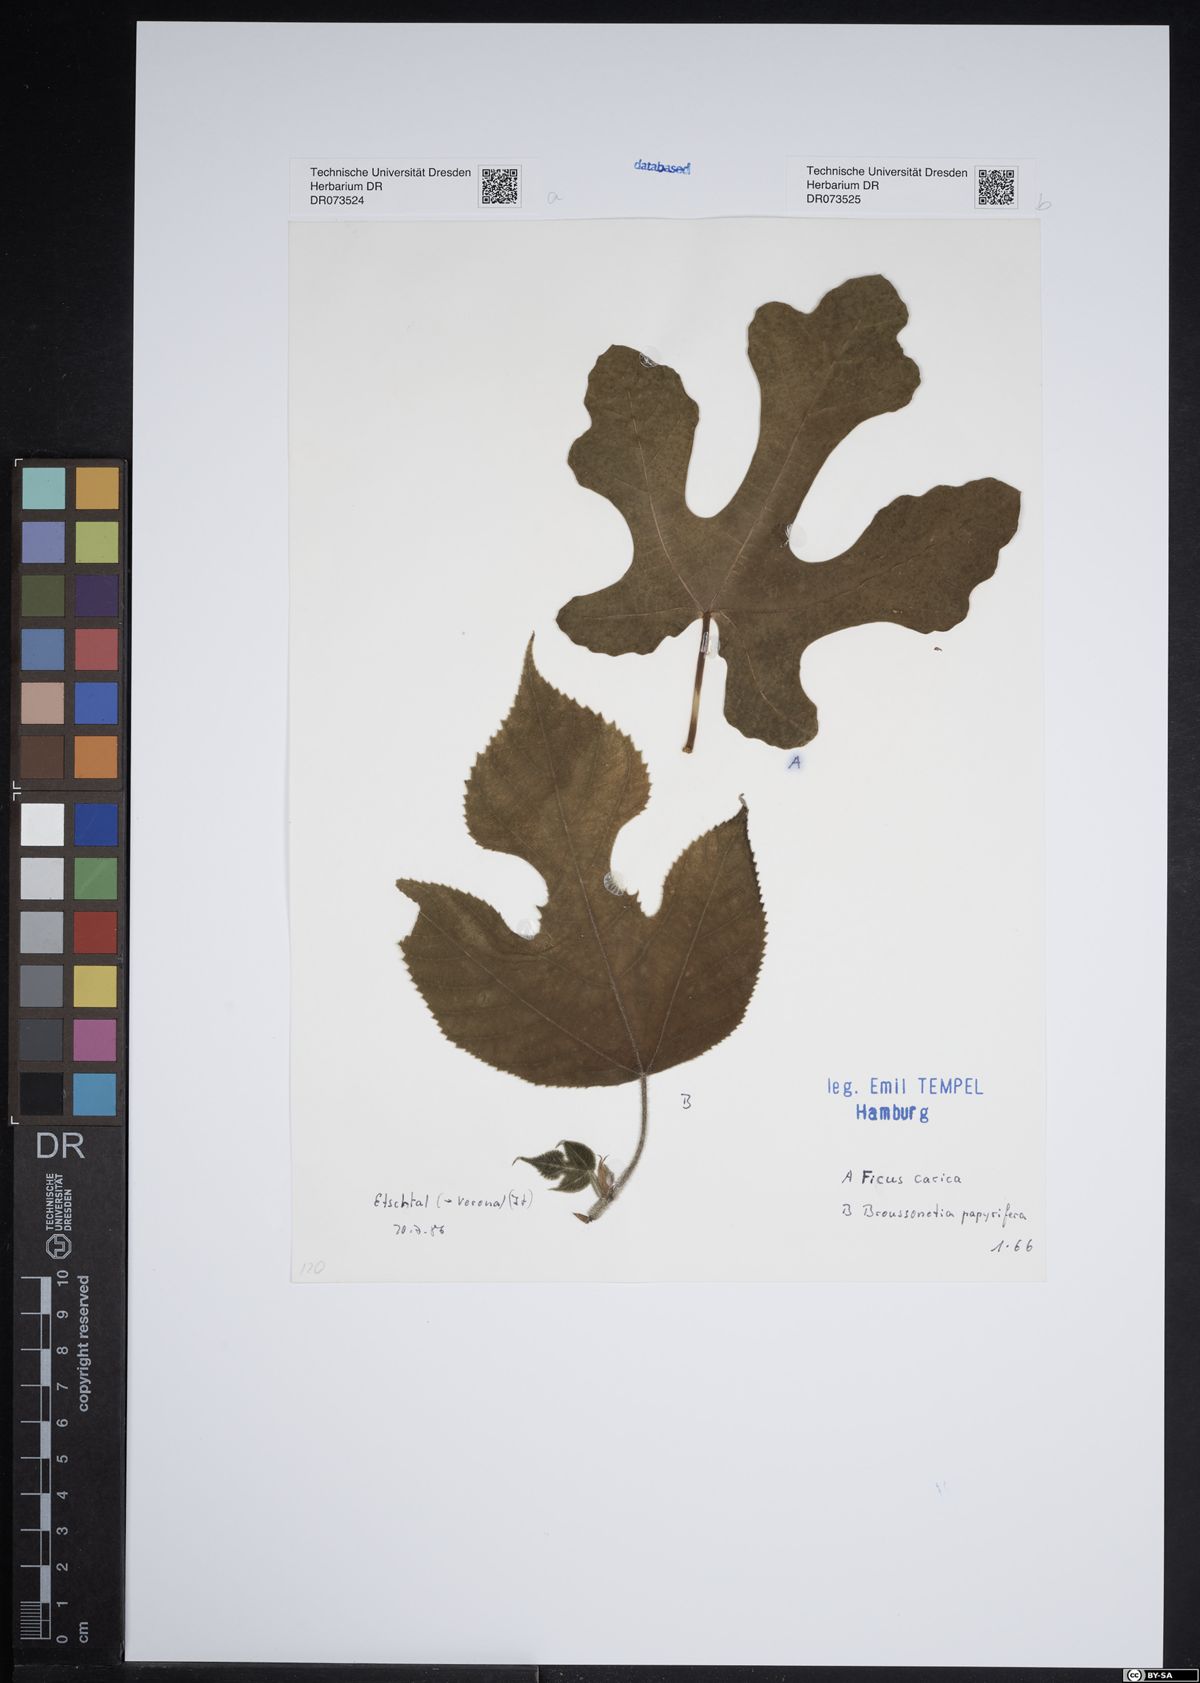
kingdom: Plantae
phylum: Tracheophyta
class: Magnoliopsida
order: Rosales
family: Moraceae
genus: Broussonetia
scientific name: Broussonetia papyrifera
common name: Paper mulberry
